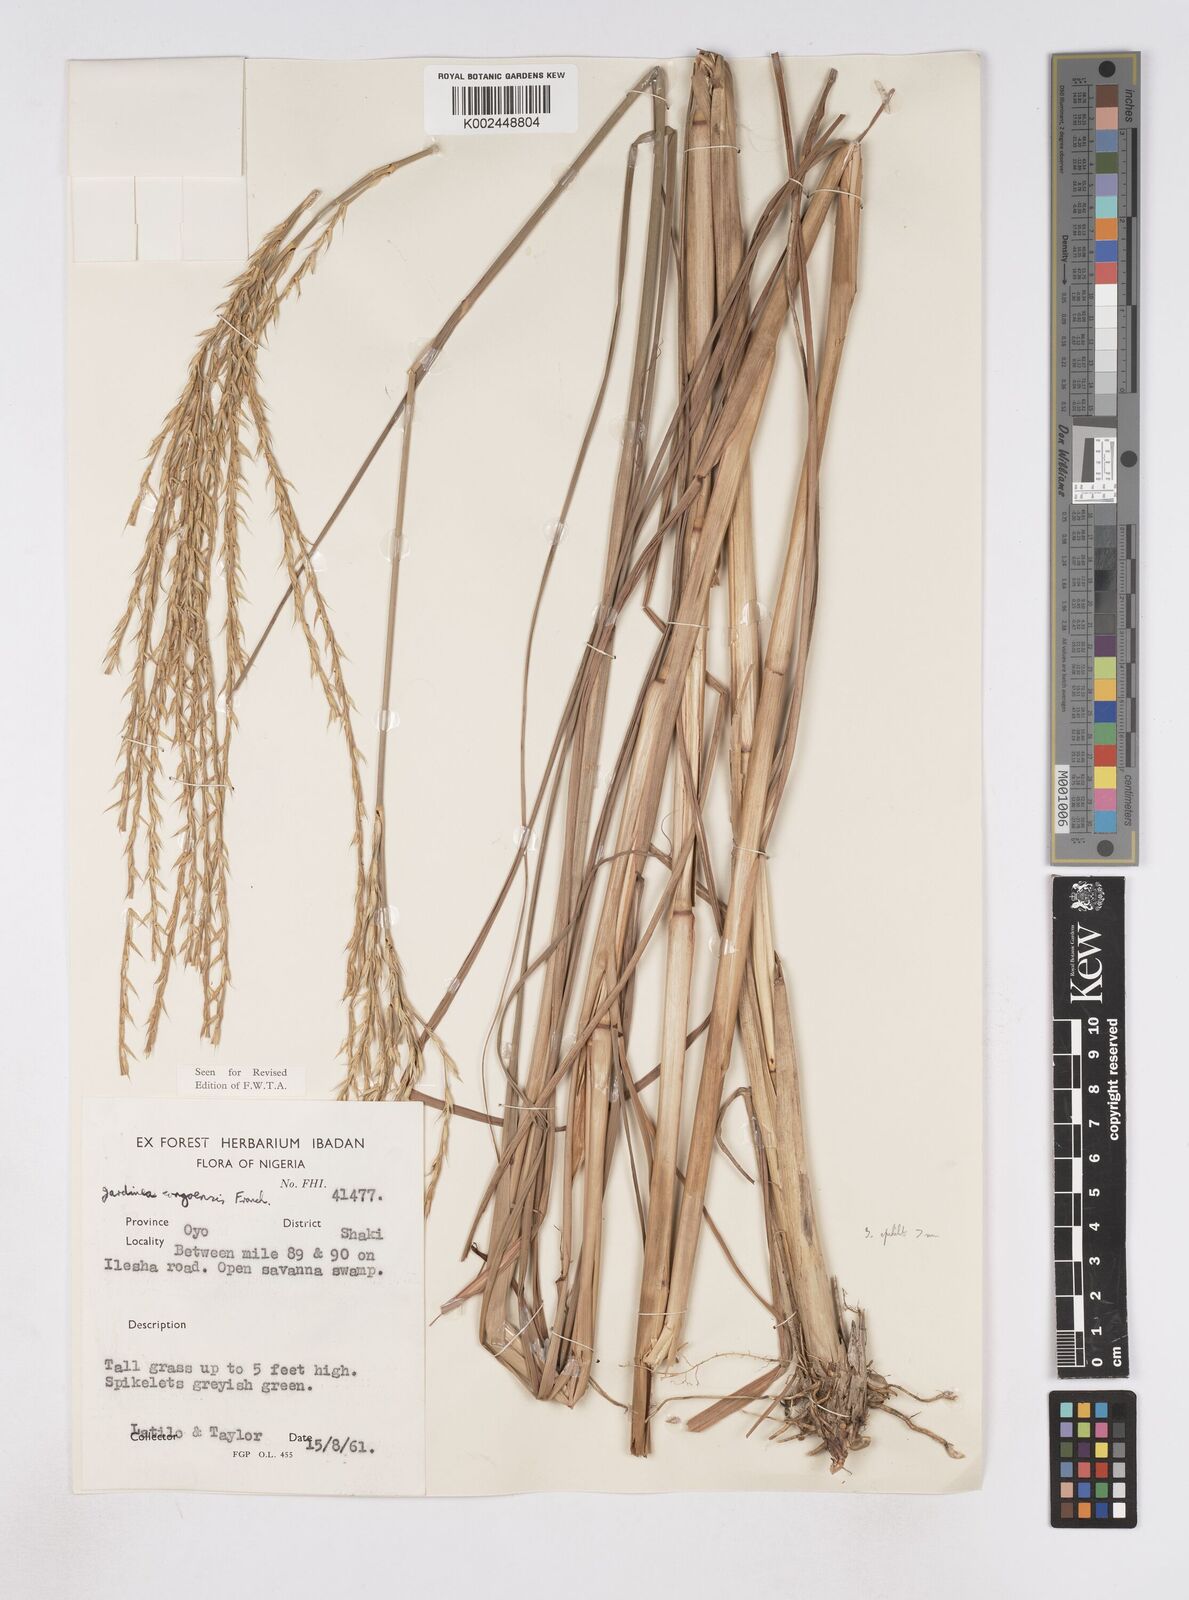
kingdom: Plantae
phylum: Tracheophyta
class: Liliopsida
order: Poales
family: Poaceae
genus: Phacelurus
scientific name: Phacelurus gabonensis
